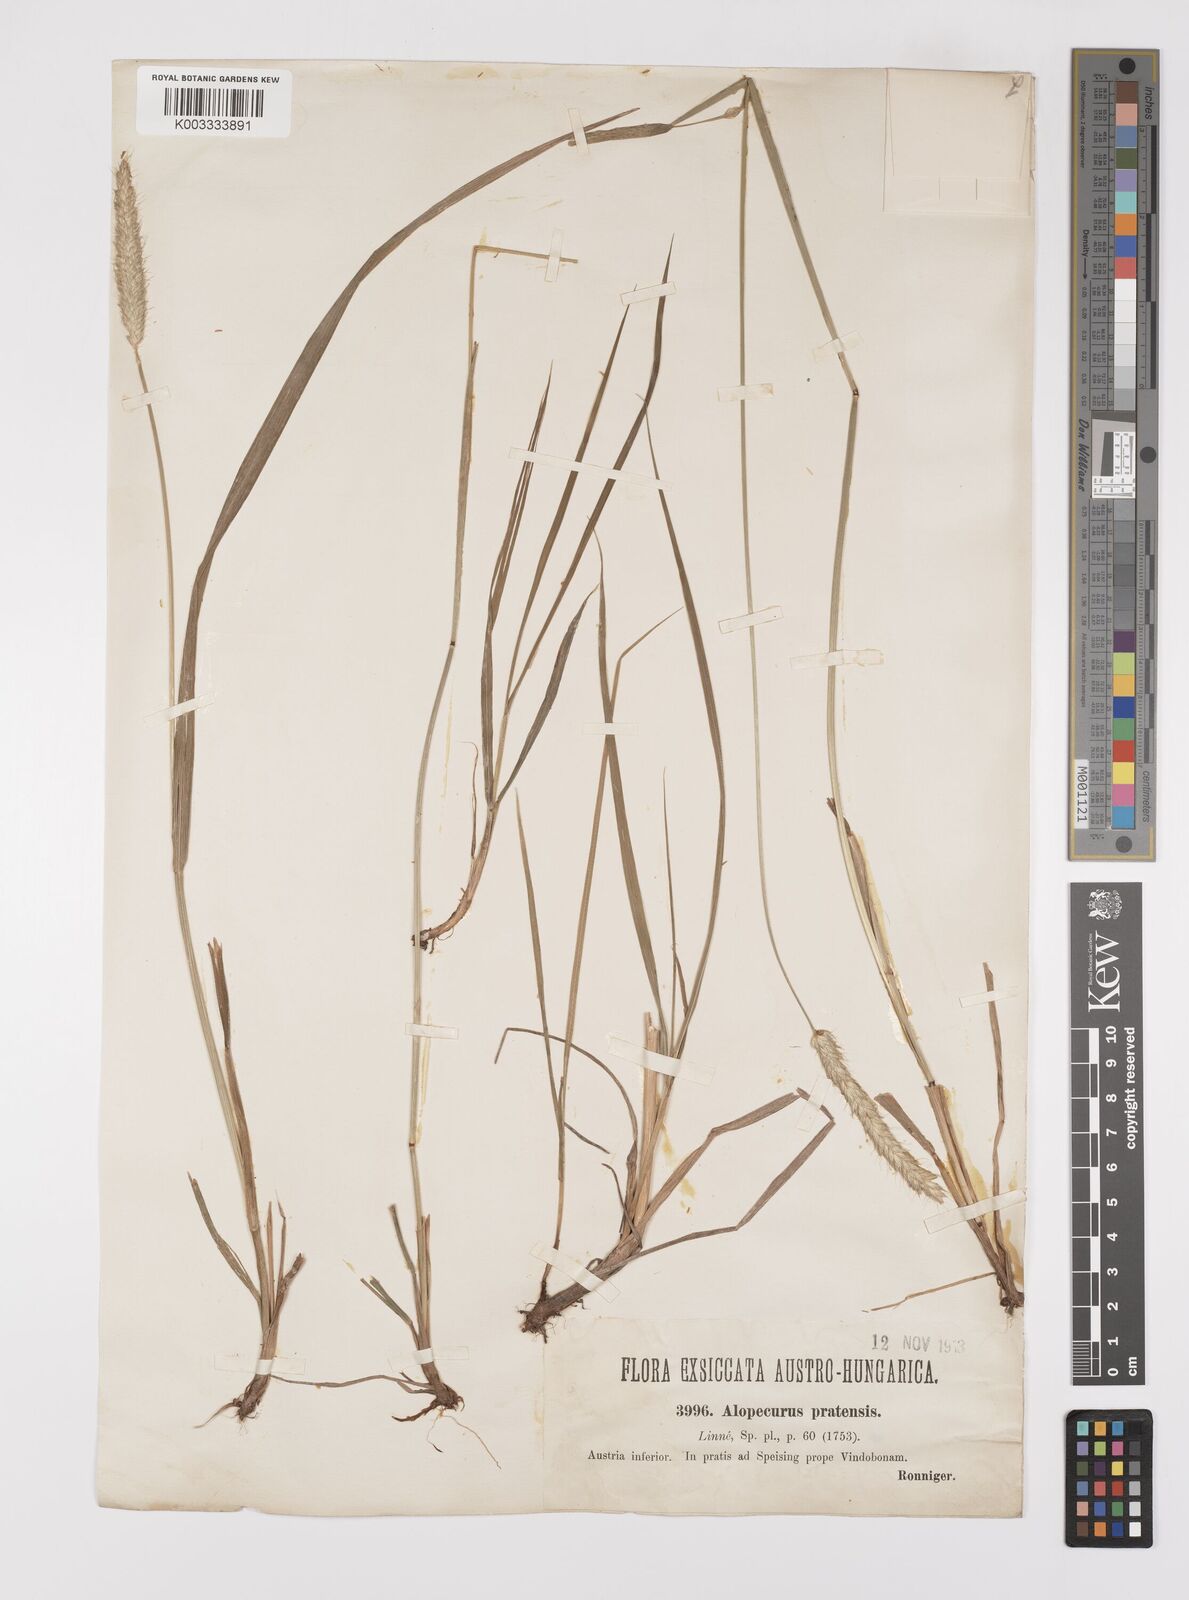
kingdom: Plantae
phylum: Tracheophyta
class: Liliopsida
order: Poales
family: Poaceae
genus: Alopecurus
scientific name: Alopecurus pratensis
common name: Meadow foxtail
